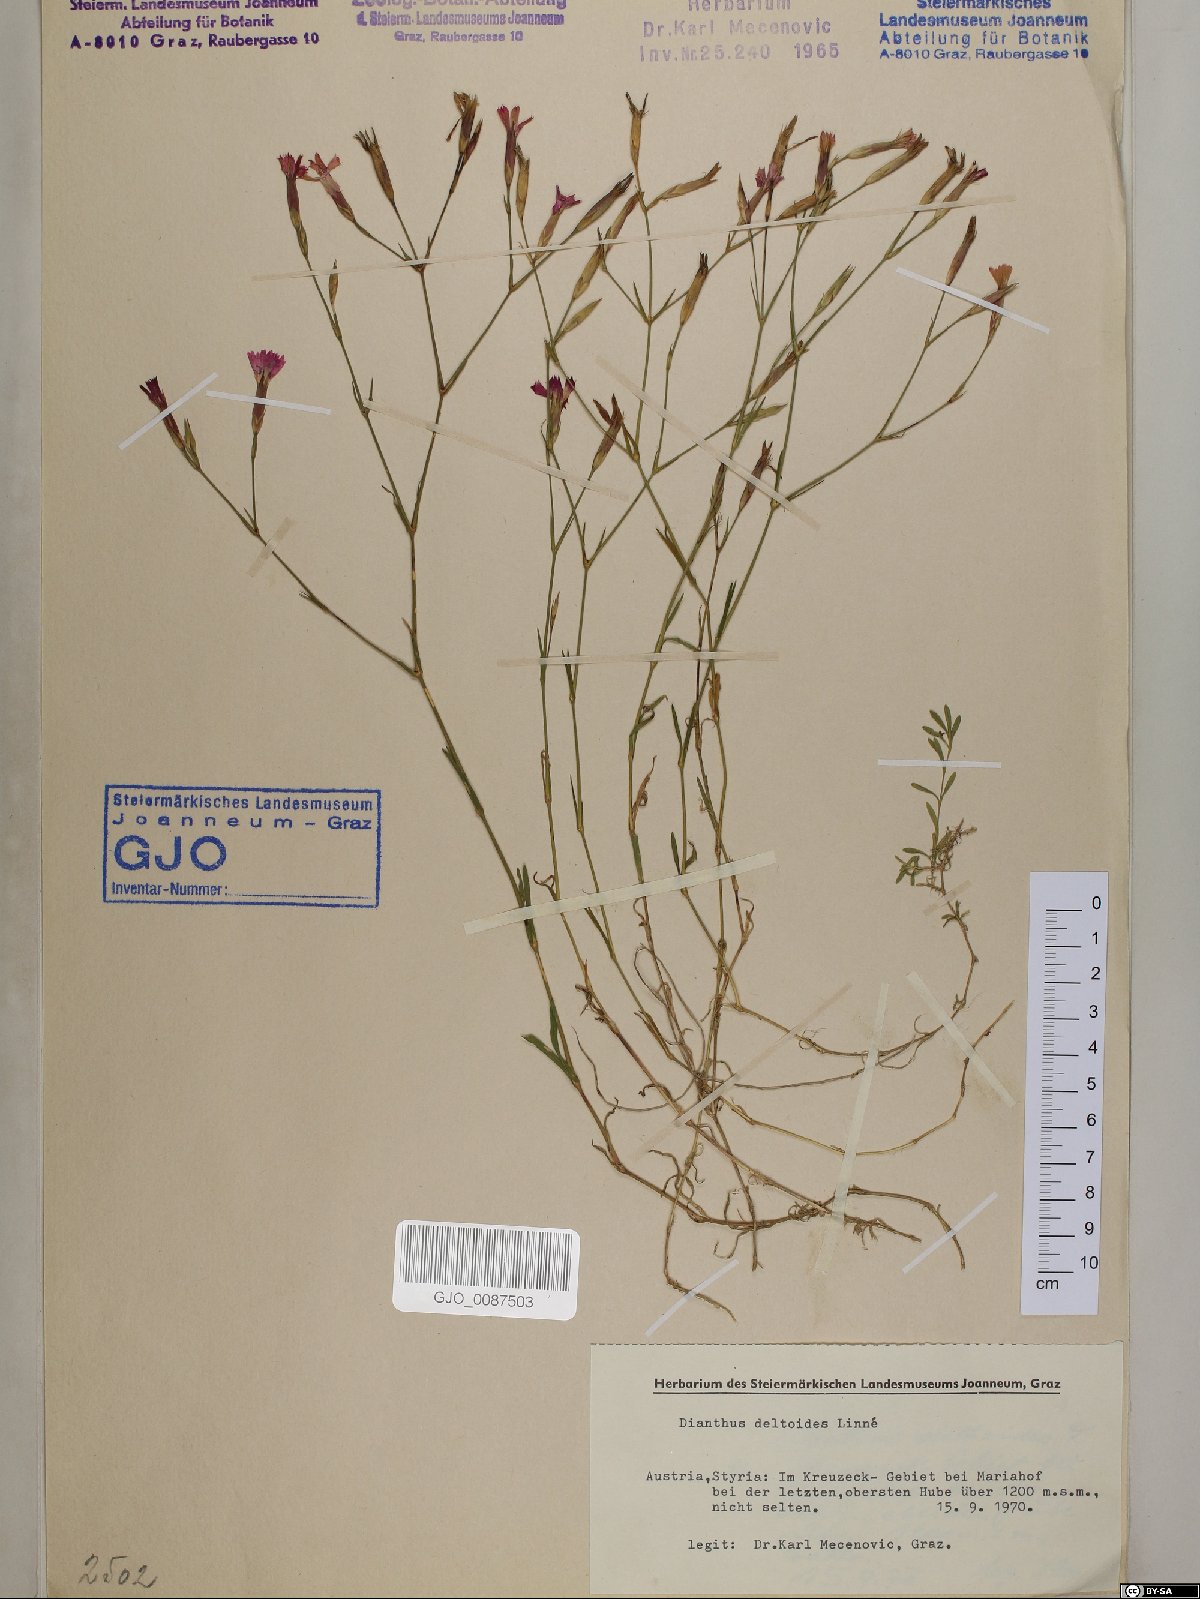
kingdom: Plantae
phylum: Tracheophyta
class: Magnoliopsida
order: Caryophyllales
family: Caryophyllaceae
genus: Dianthus
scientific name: Dianthus deltoides
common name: Maiden pink
